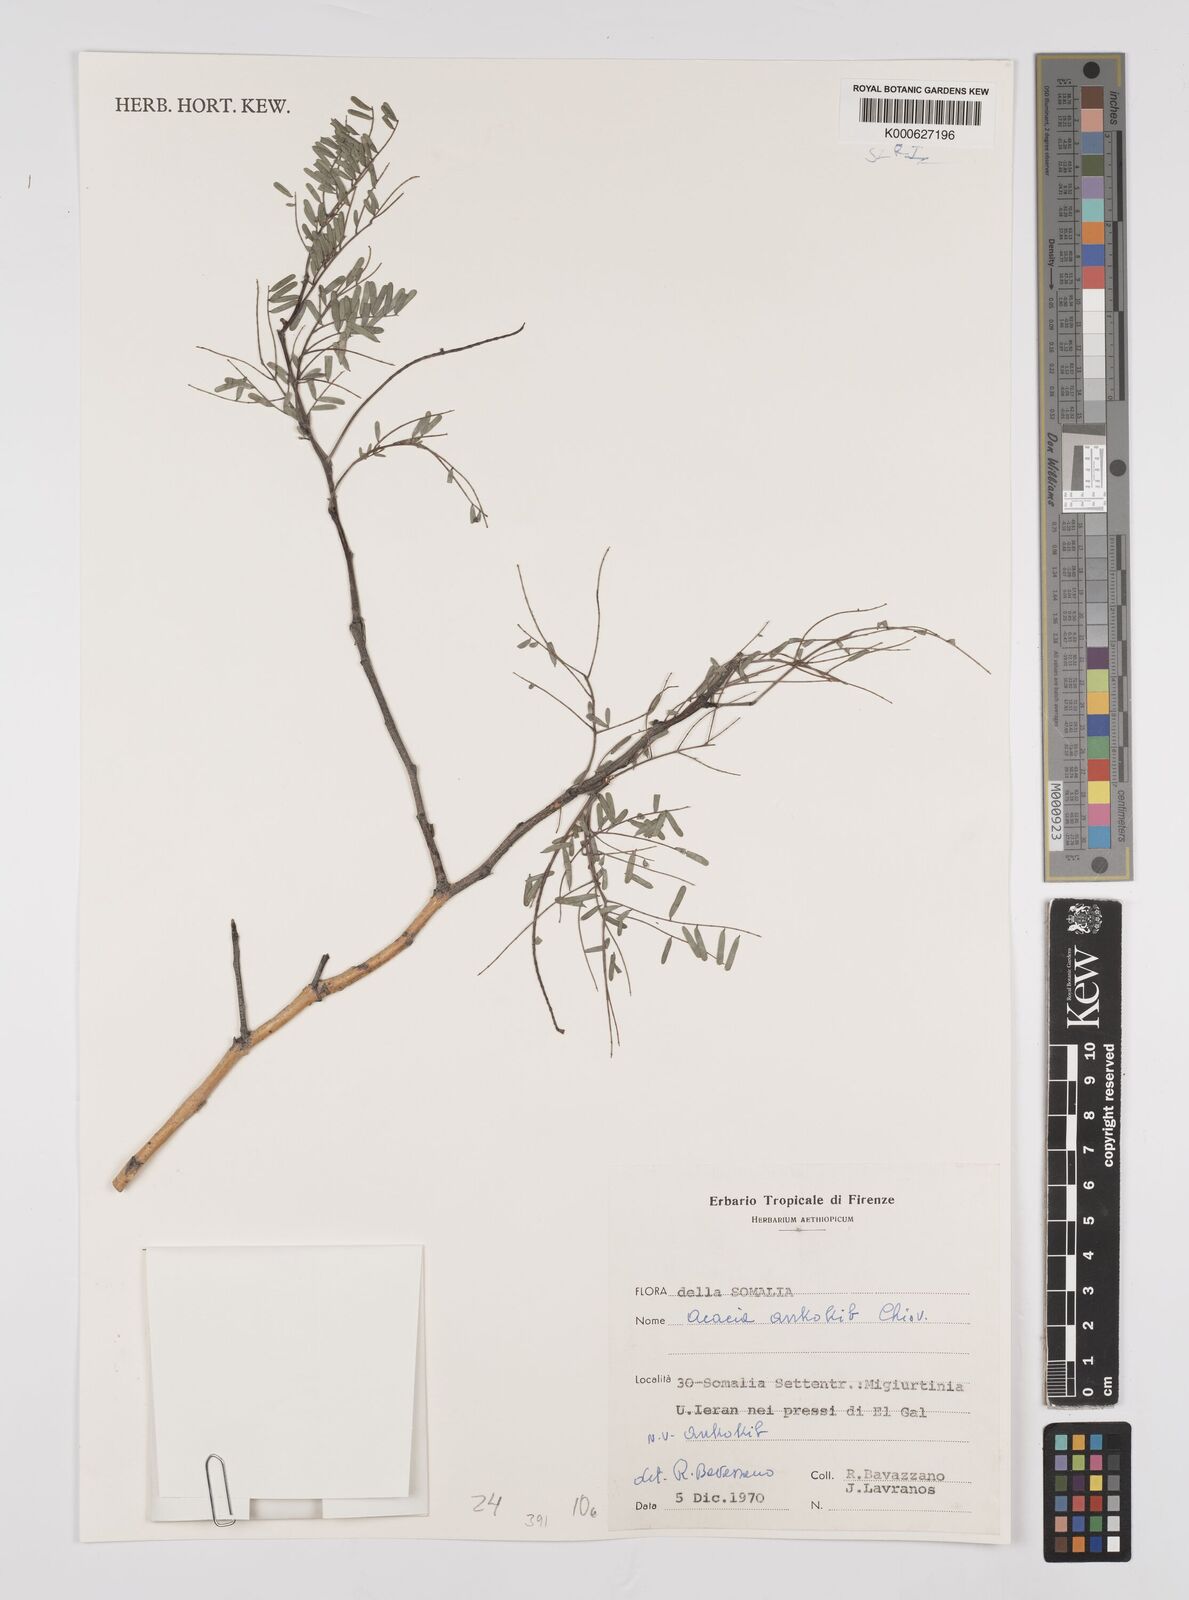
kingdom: Plantae
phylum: Tracheophyta
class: Magnoliopsida
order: Fabales
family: Fabaceae
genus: Senegalia
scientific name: Senegalia ankokib
